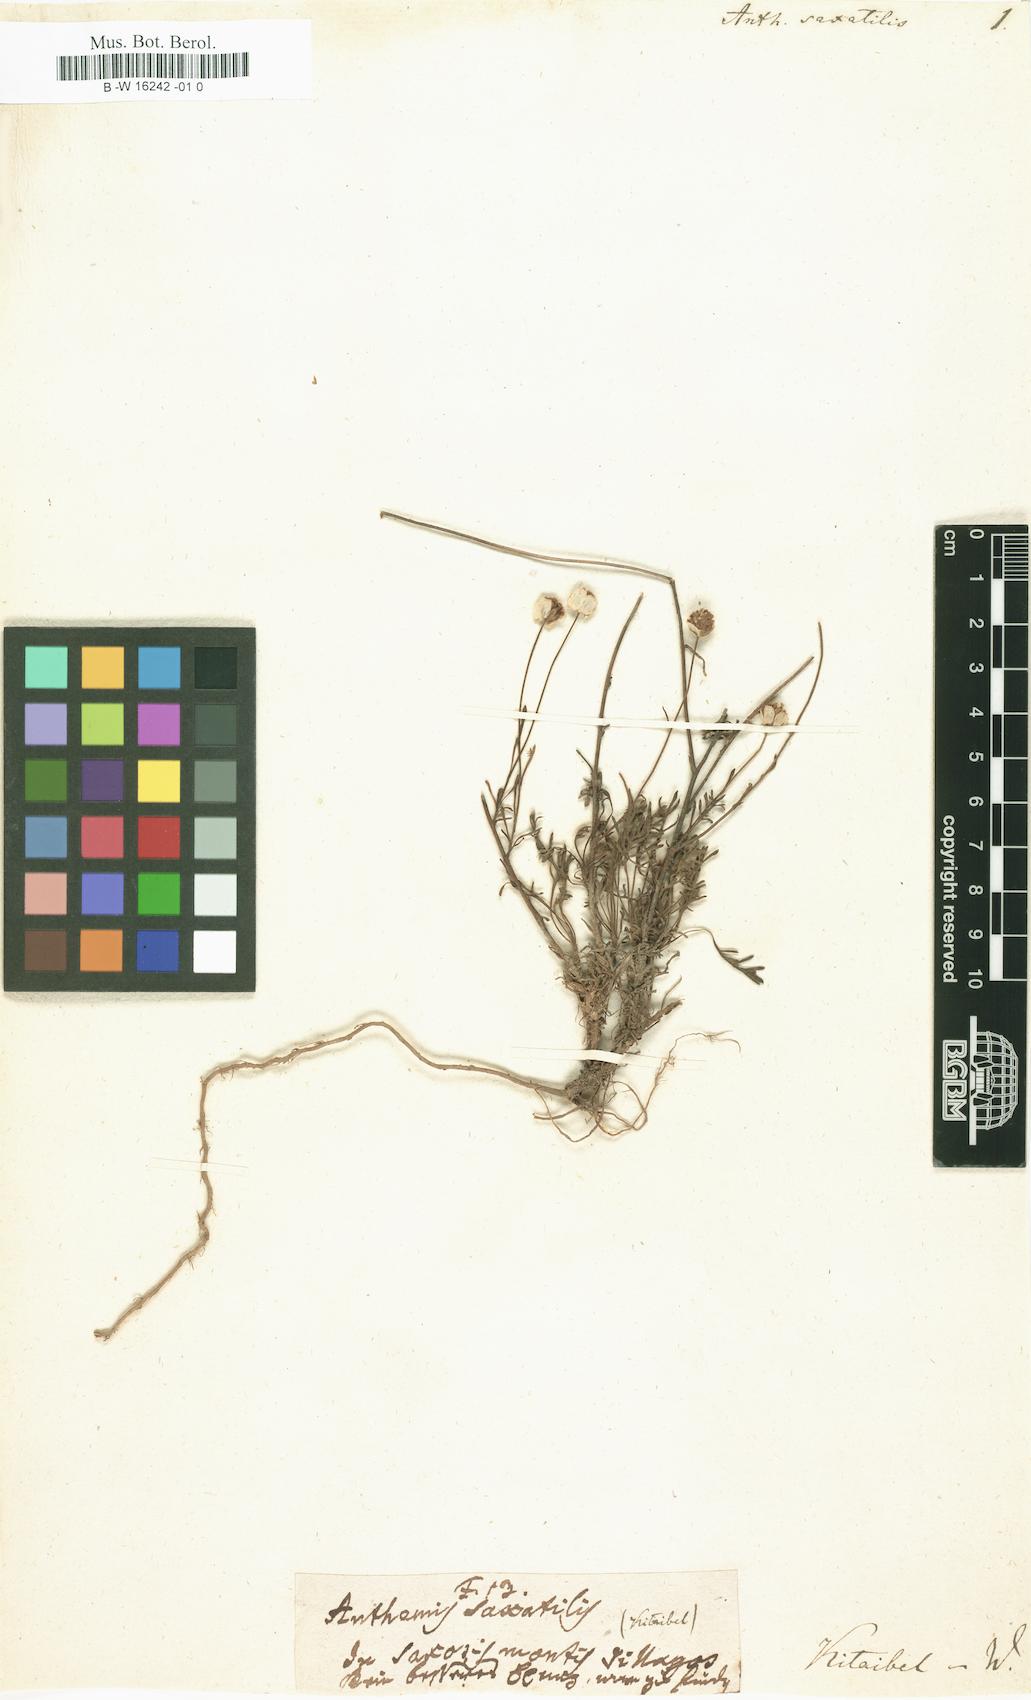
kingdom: Plantae
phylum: Tracheophyta
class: Magnoliopsida
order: Asterales
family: Asteraceae
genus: Anthemis
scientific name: Anthemis saxatilis
